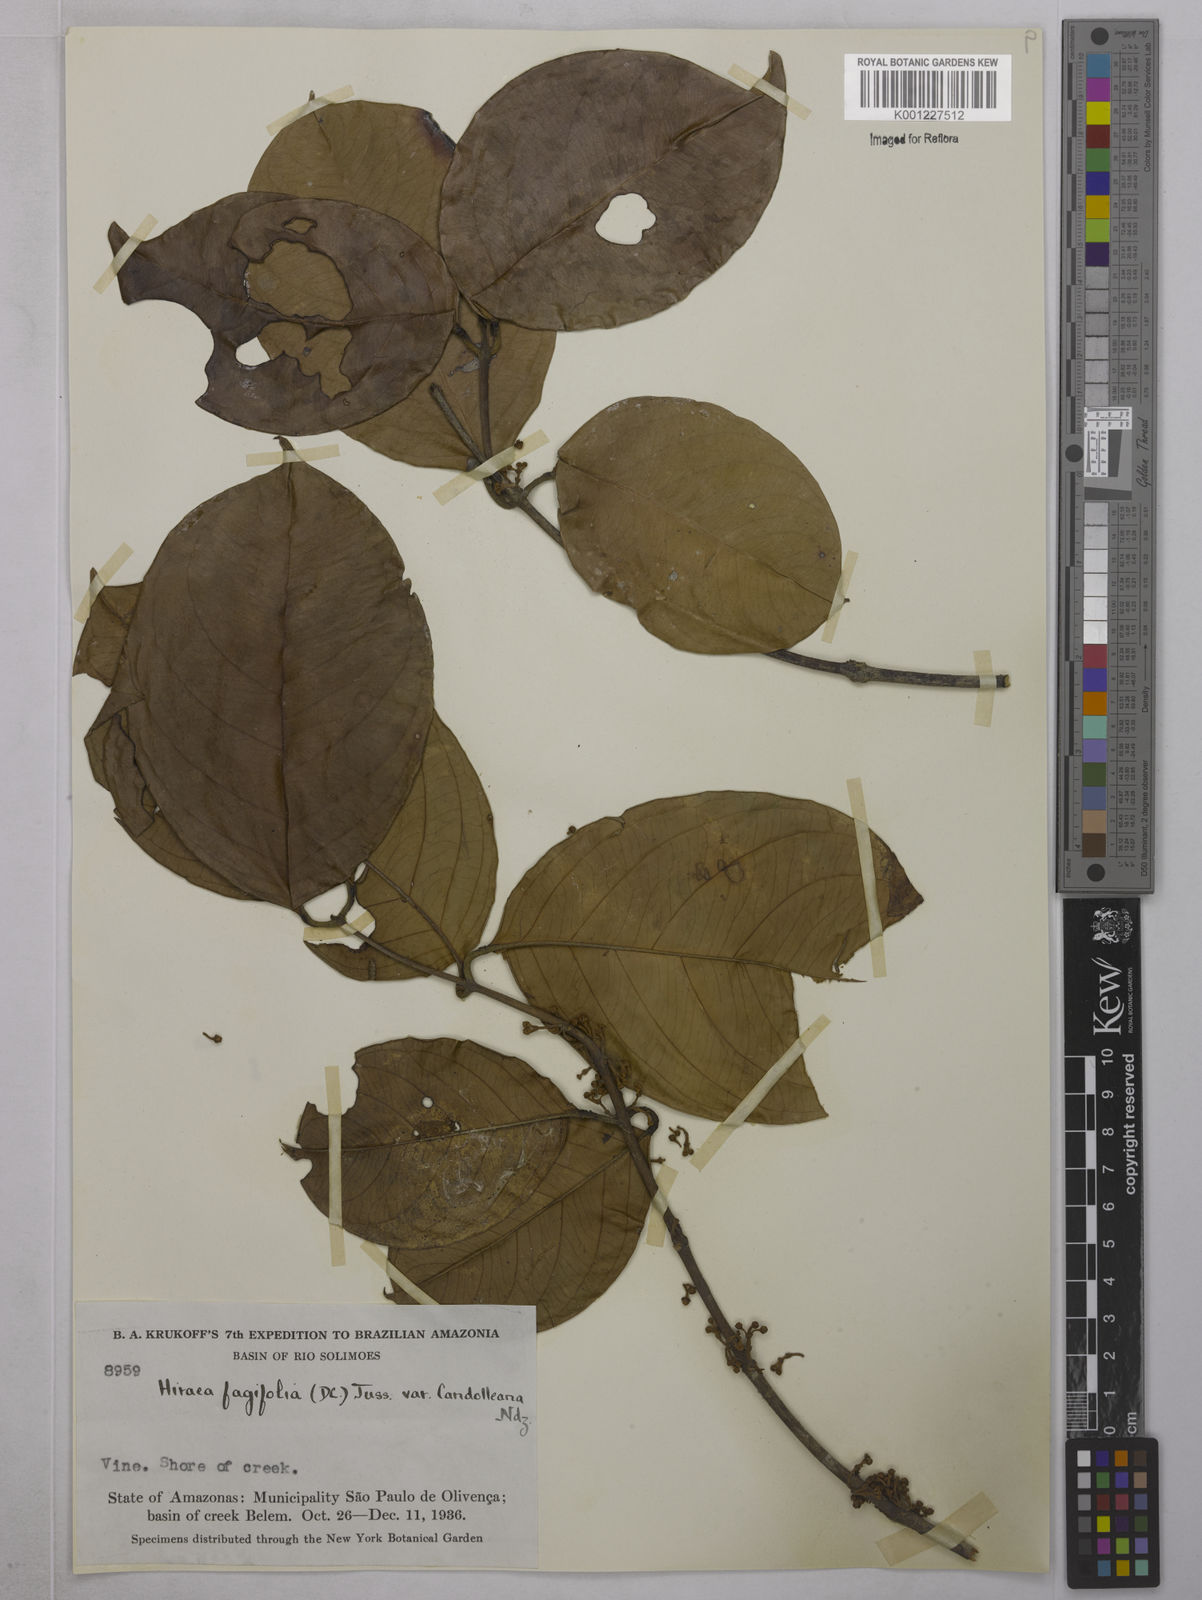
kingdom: Plantae
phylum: Tracheophyta
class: Magnoliopsida
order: Malpighiales
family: Malpighiaceae
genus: Hiraea
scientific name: Hiraea fagifolia
